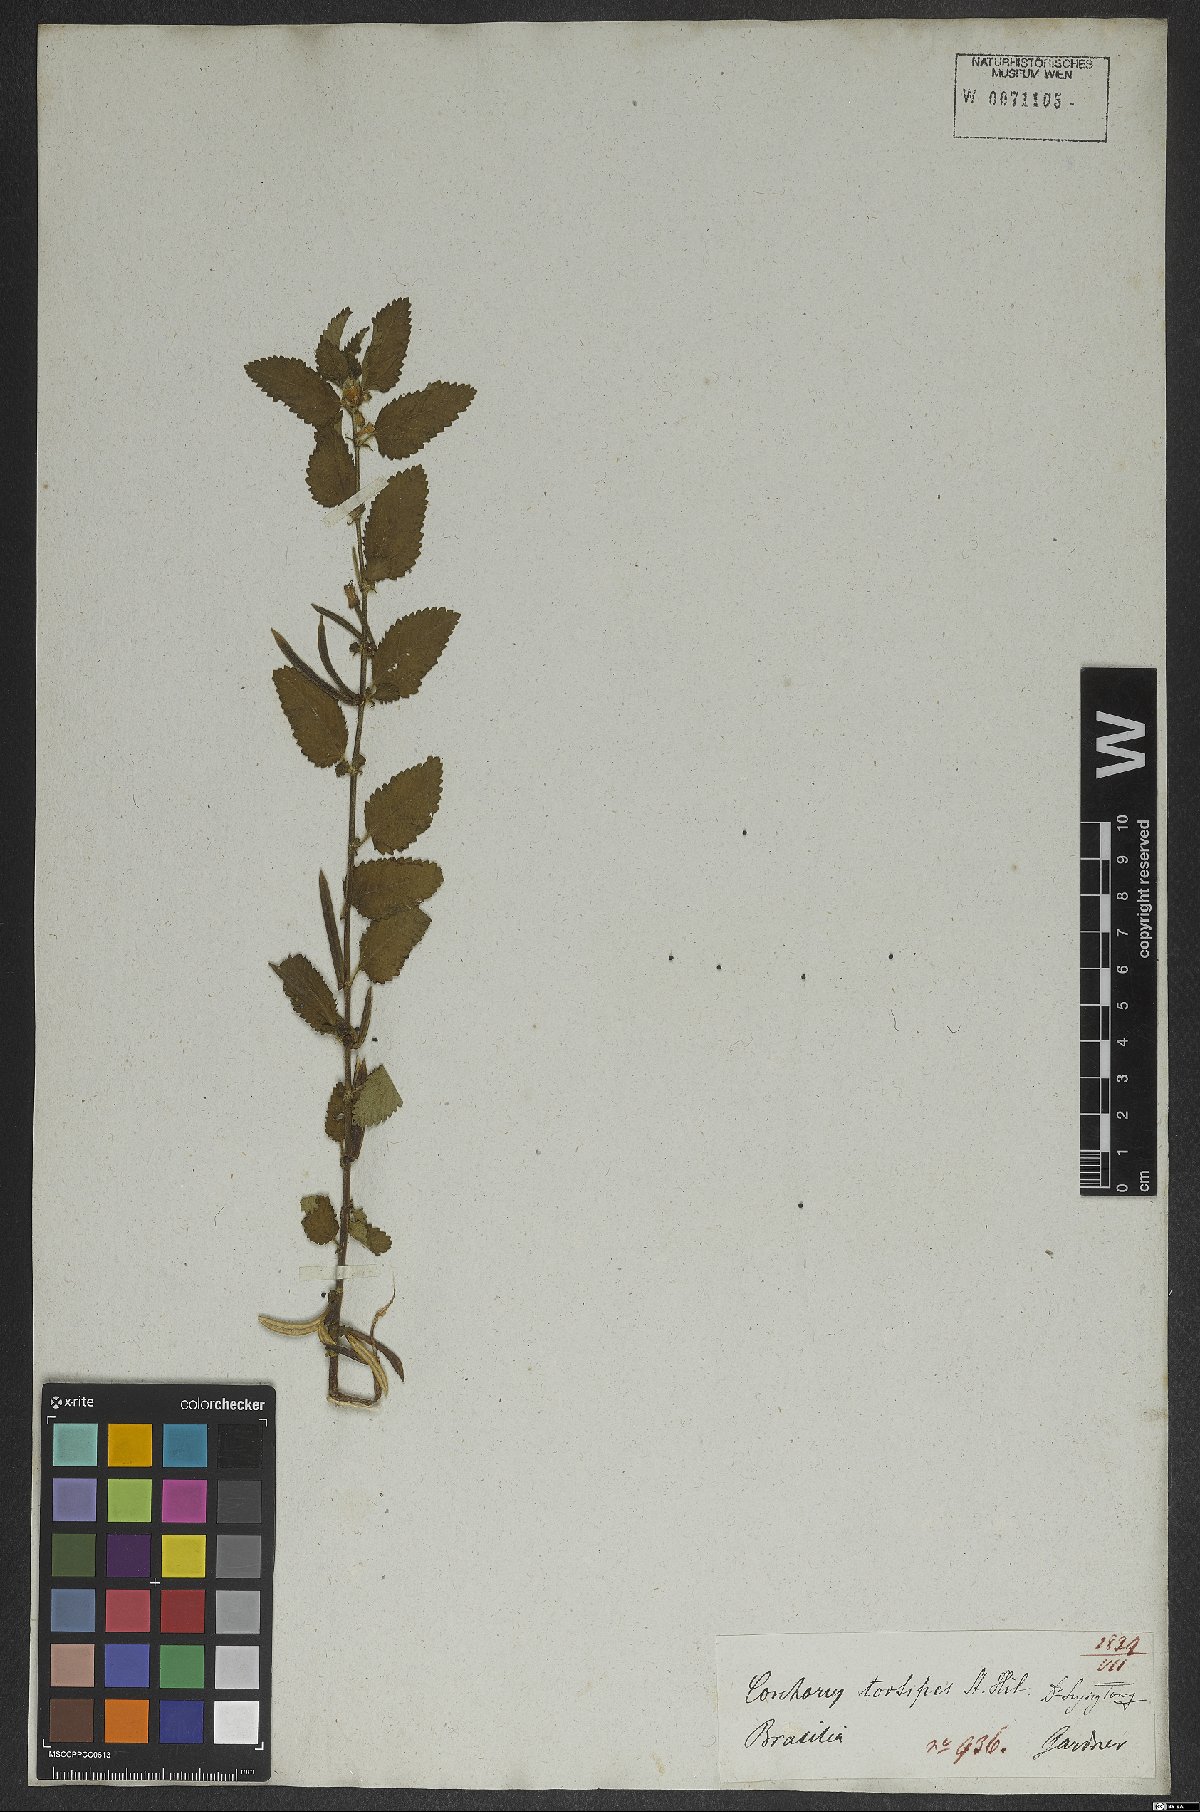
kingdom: Plantae
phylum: Tracheophyta
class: Magnoliopsida
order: Malvales
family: Malvaceae
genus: Corchorus
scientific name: Corchorus hirtus
